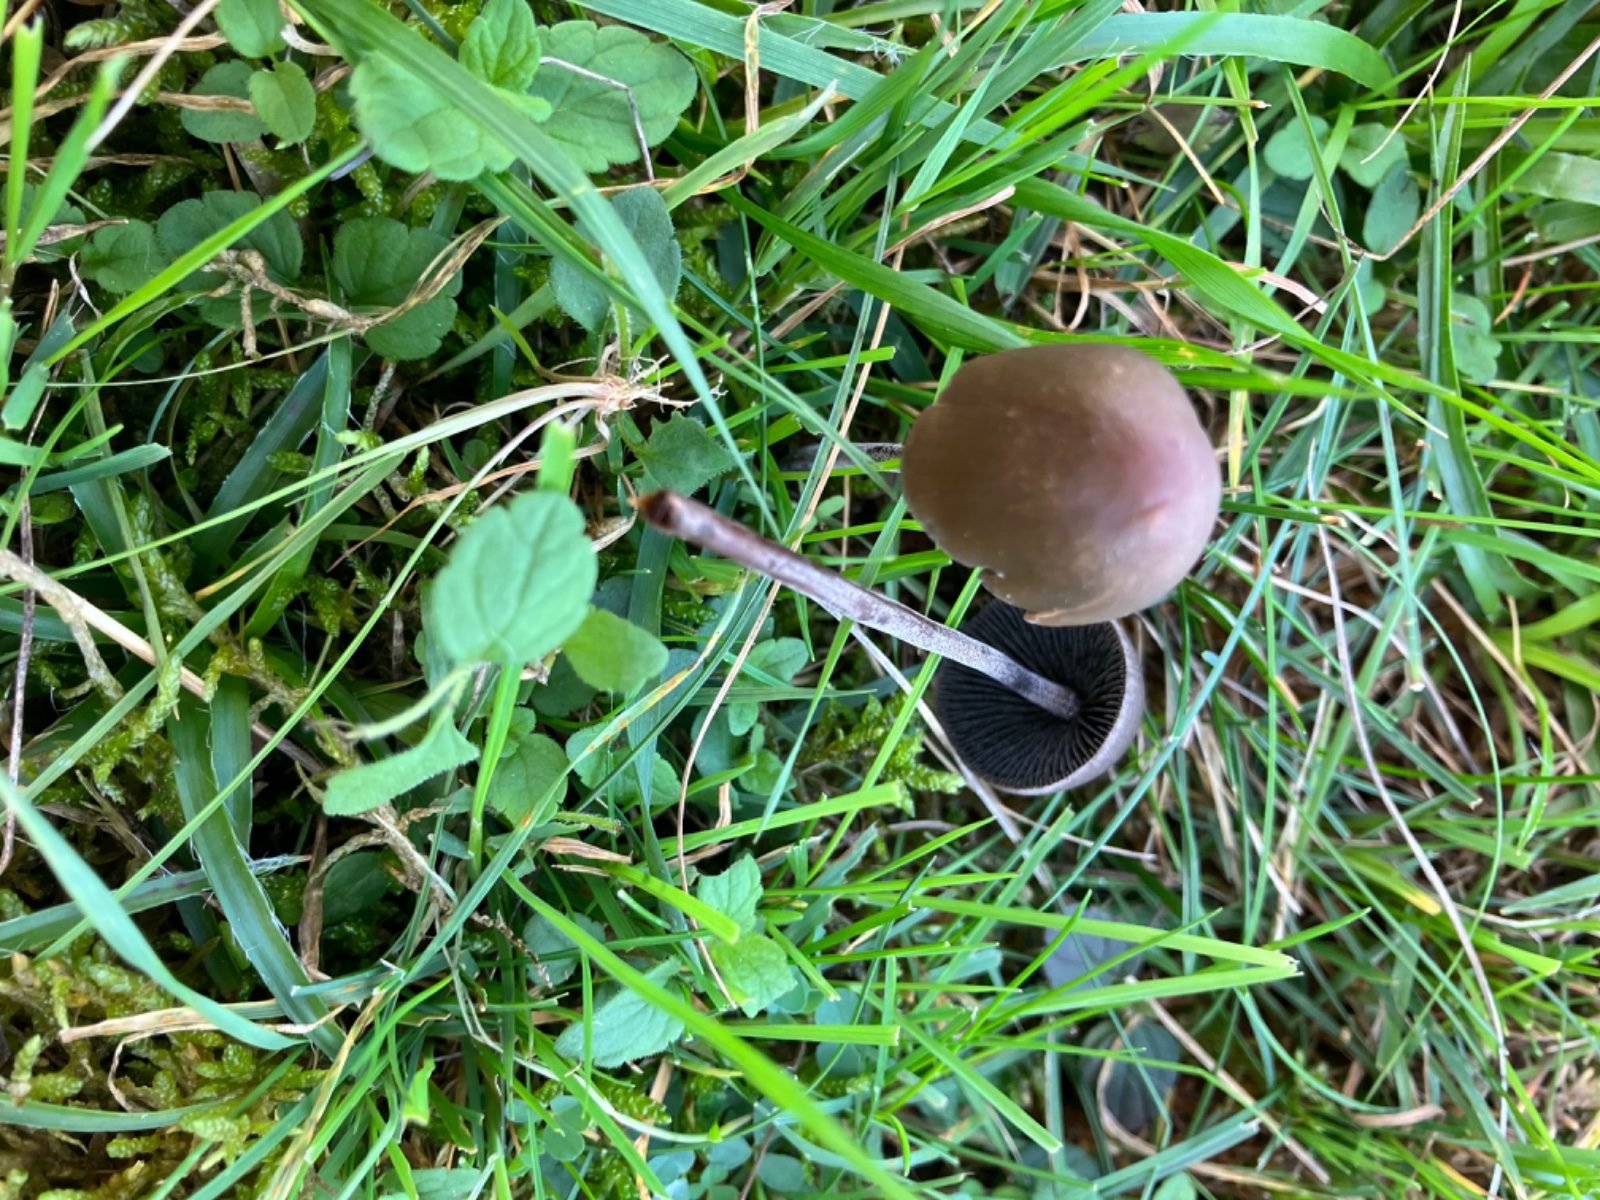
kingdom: Fungi
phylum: Basidiomycota
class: Agaricomycetes
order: Agaricales
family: Bolbitiaceae
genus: Panaeolus
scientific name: Panaeolus acuminatus
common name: høj glanshat
